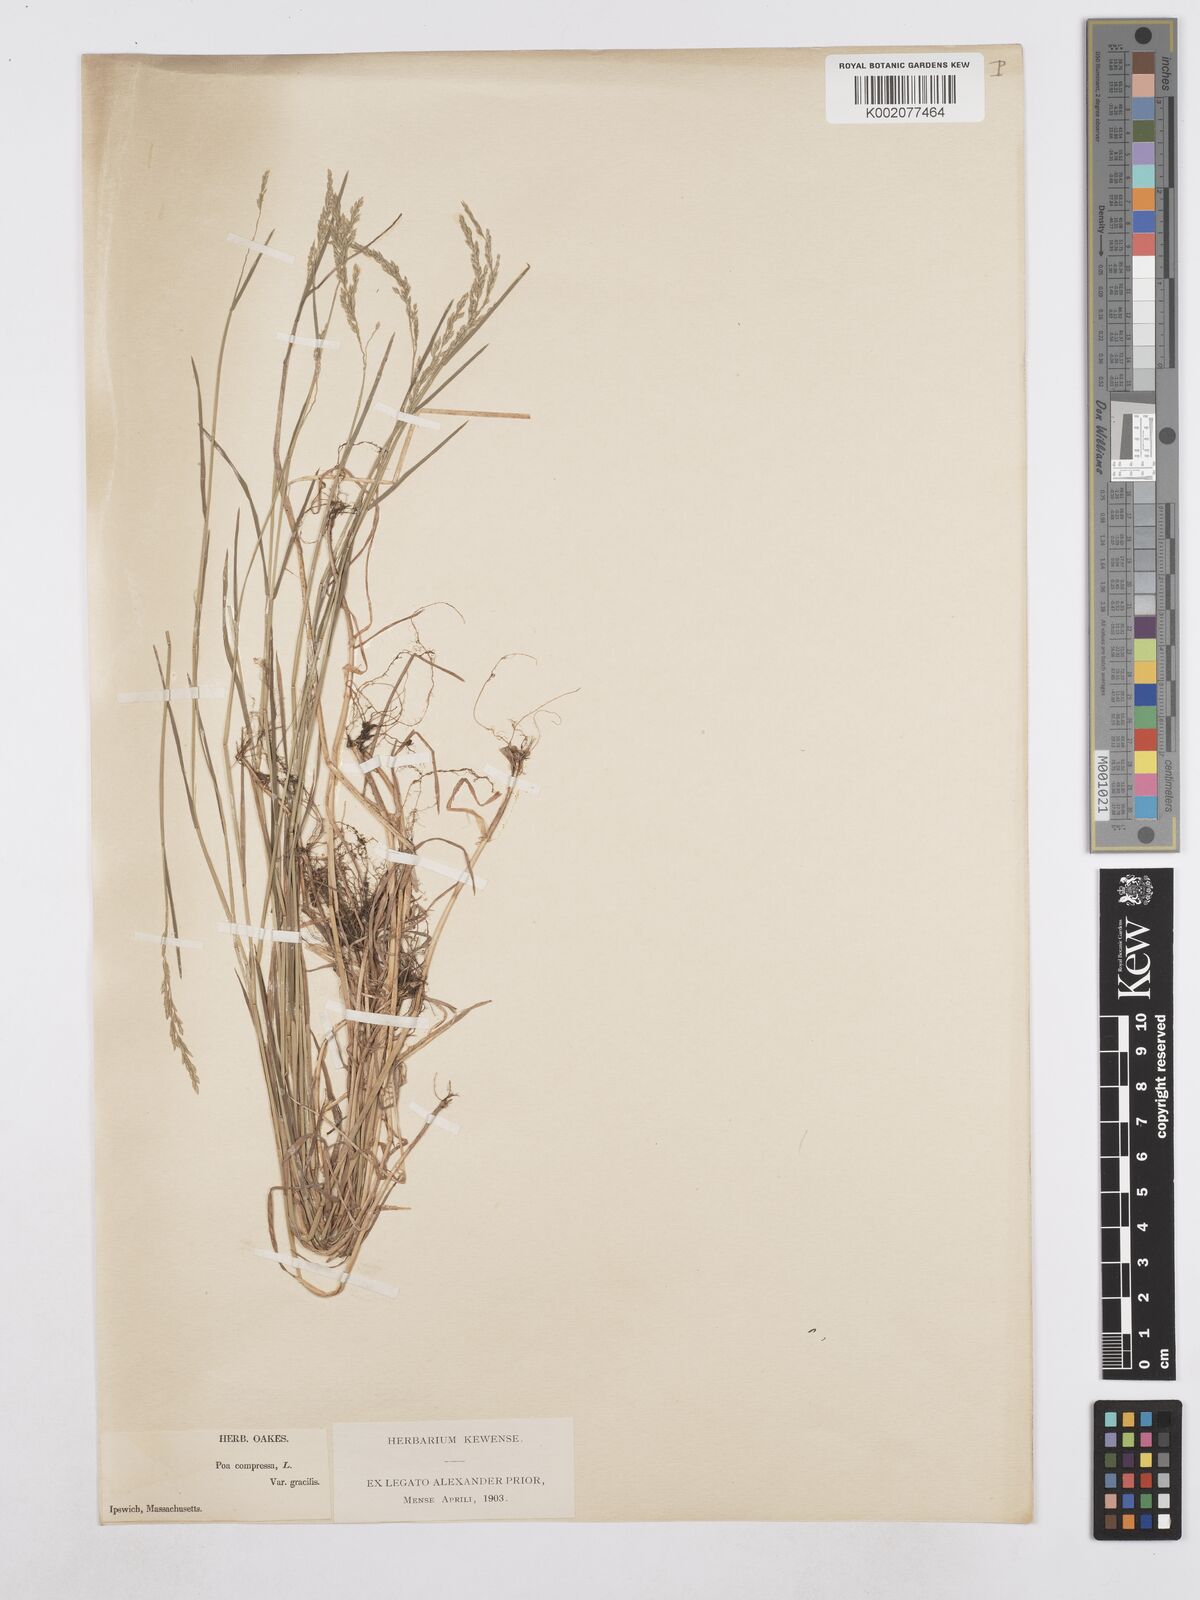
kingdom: Plantae
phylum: Tracheophyta
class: Liliopsida
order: Poales
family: Poaceae
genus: Poa
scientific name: Poa compressa
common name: Canada bluegrass
